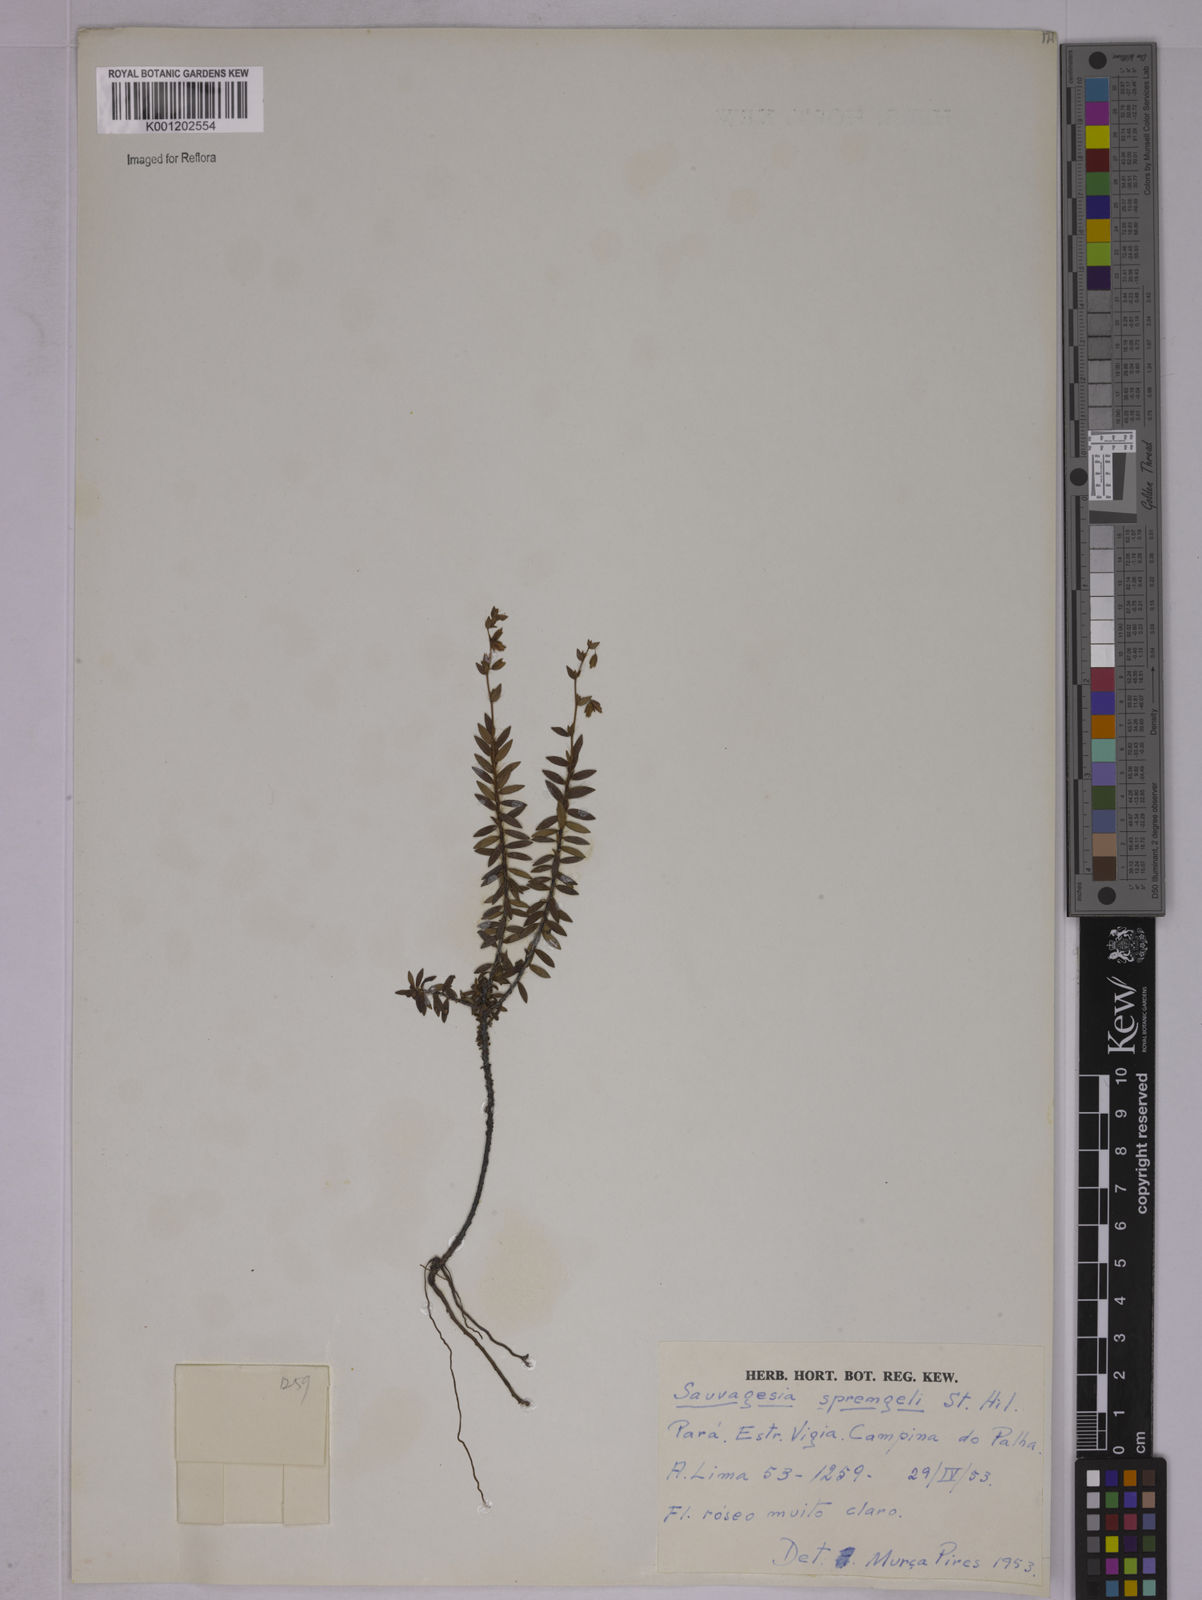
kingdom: Plantae
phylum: Tracheophyta
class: Magnoliopsida
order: Malpighiales
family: Ochnaceae
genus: Sauvagesia
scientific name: Sauvagesia sprengelii
